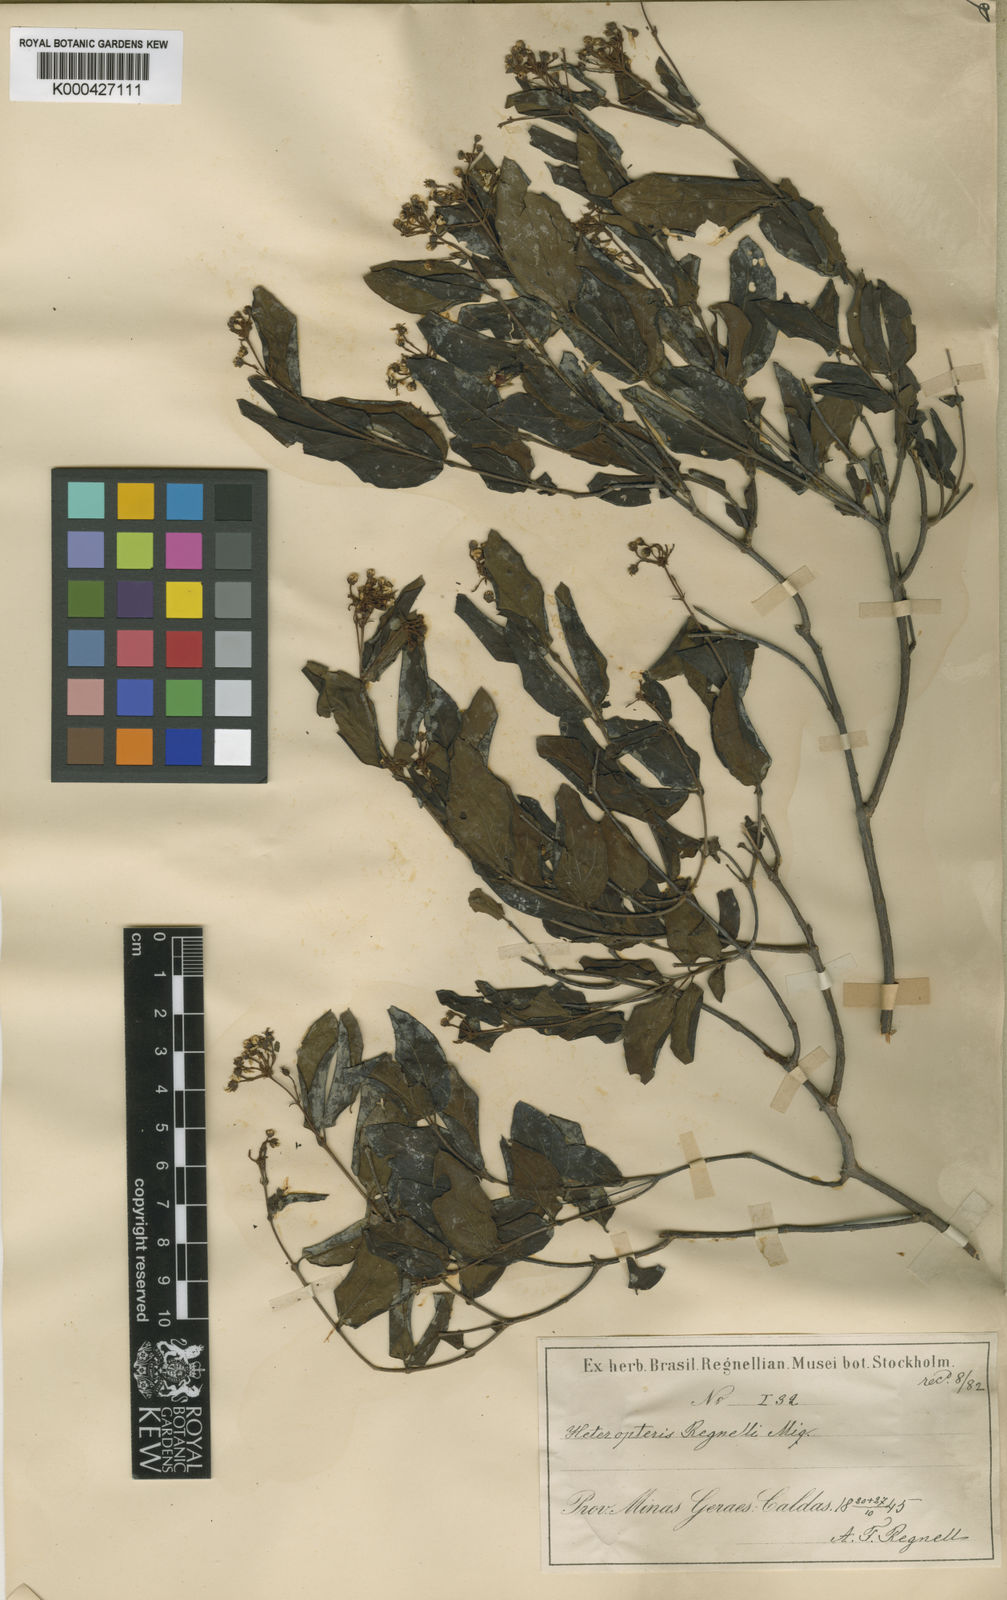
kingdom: Plantae
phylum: Tracheophyta
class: Magnoliopsida
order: Malpighiales
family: Malpighiaceae
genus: Heteropterys
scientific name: Heteropterys umbellata
